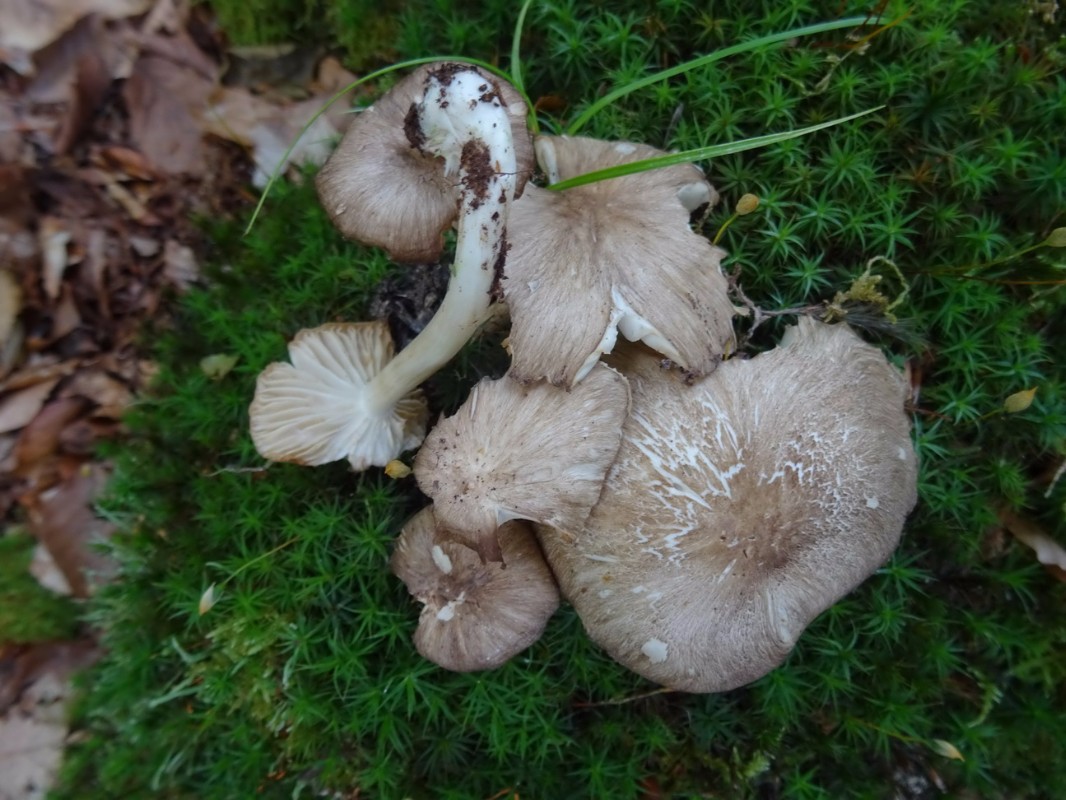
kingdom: Fungi
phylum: Basidiomycota
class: Agaricomycetes
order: Agaricales
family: Tricholomataceae
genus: Megacollybia
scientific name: Megacollybia platyphylla
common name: bredbladet væbnerhat
